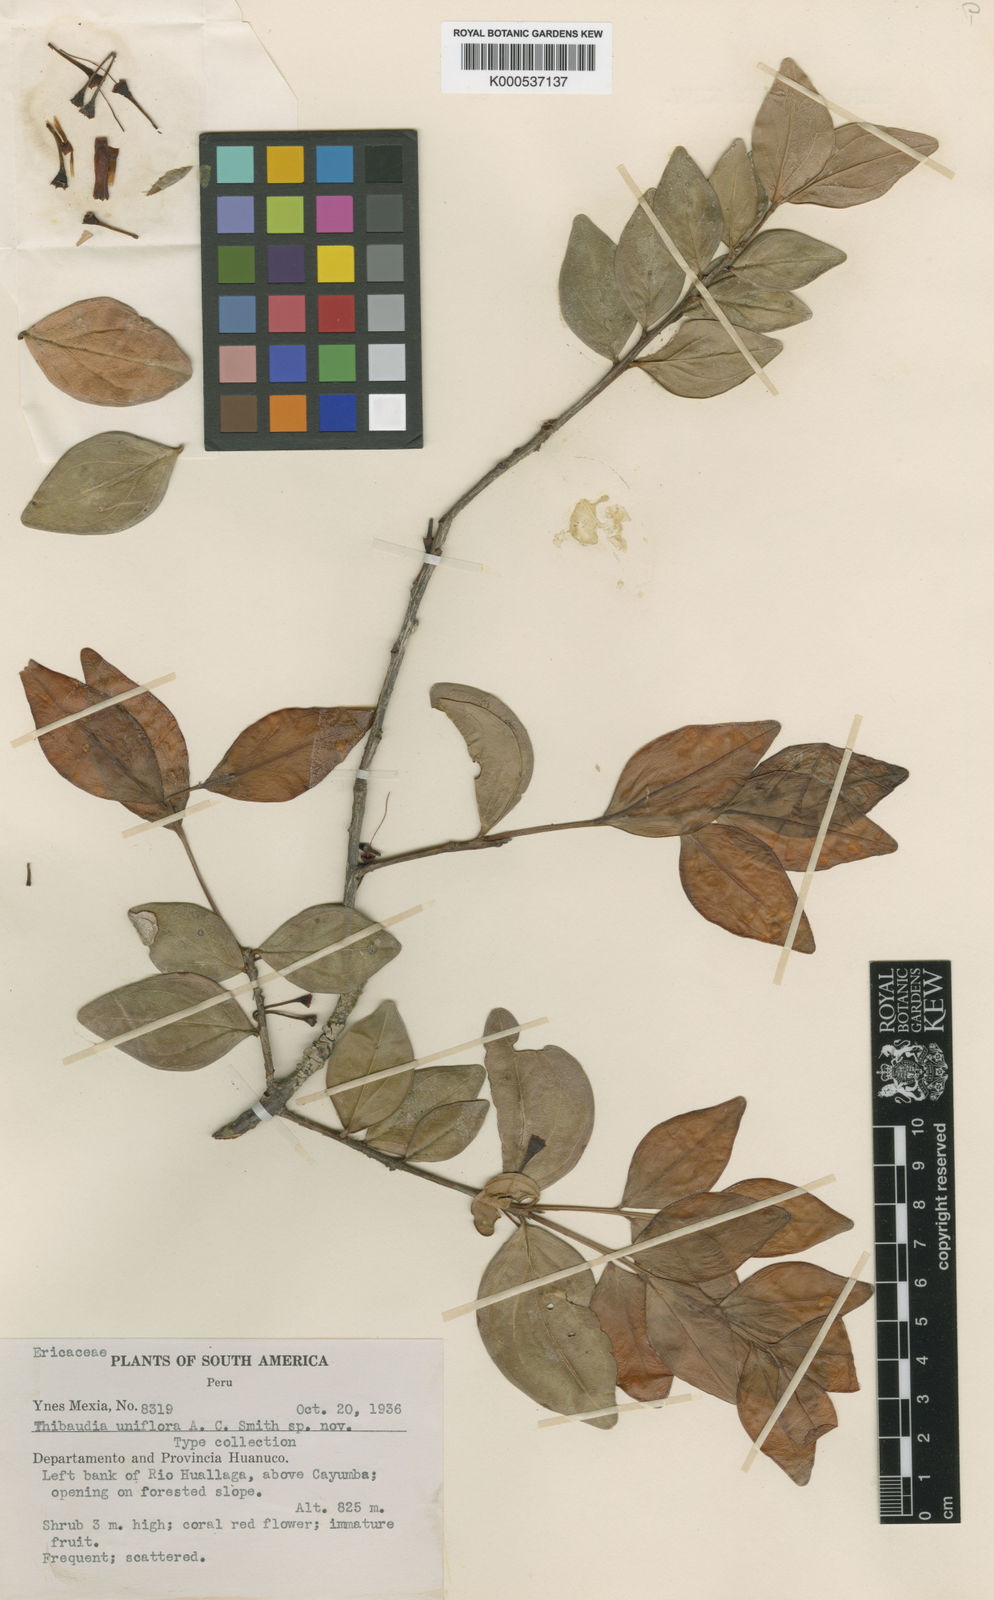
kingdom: Plantae
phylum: Tracheophyta
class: Magnoliopsida
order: Ericales
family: Ericaceae
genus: Thibaudia
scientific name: Thibaudia uniflora
